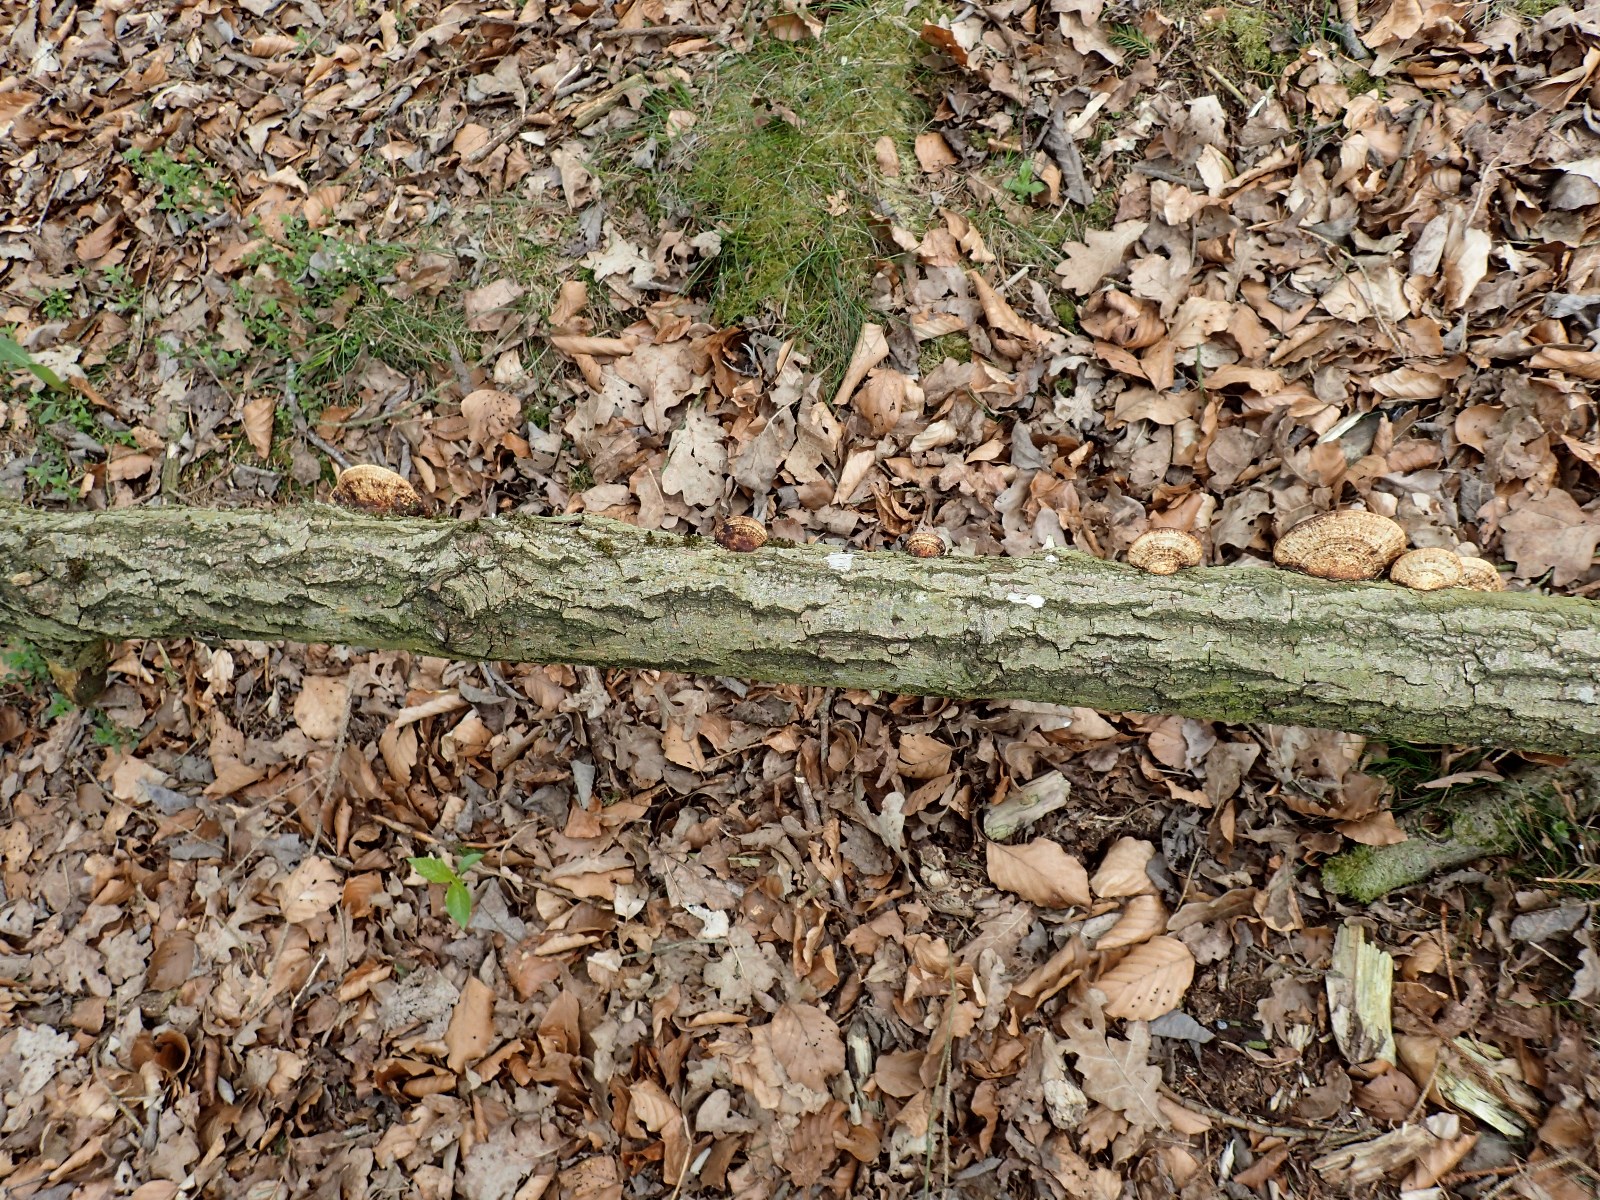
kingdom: Fungi
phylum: Basidiomycota
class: Agaricomycetes
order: Polyporales
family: Polyporaceae
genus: Daedaleopsis
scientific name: Daedaleopsis confragosa
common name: rødmende læderporesvamp
